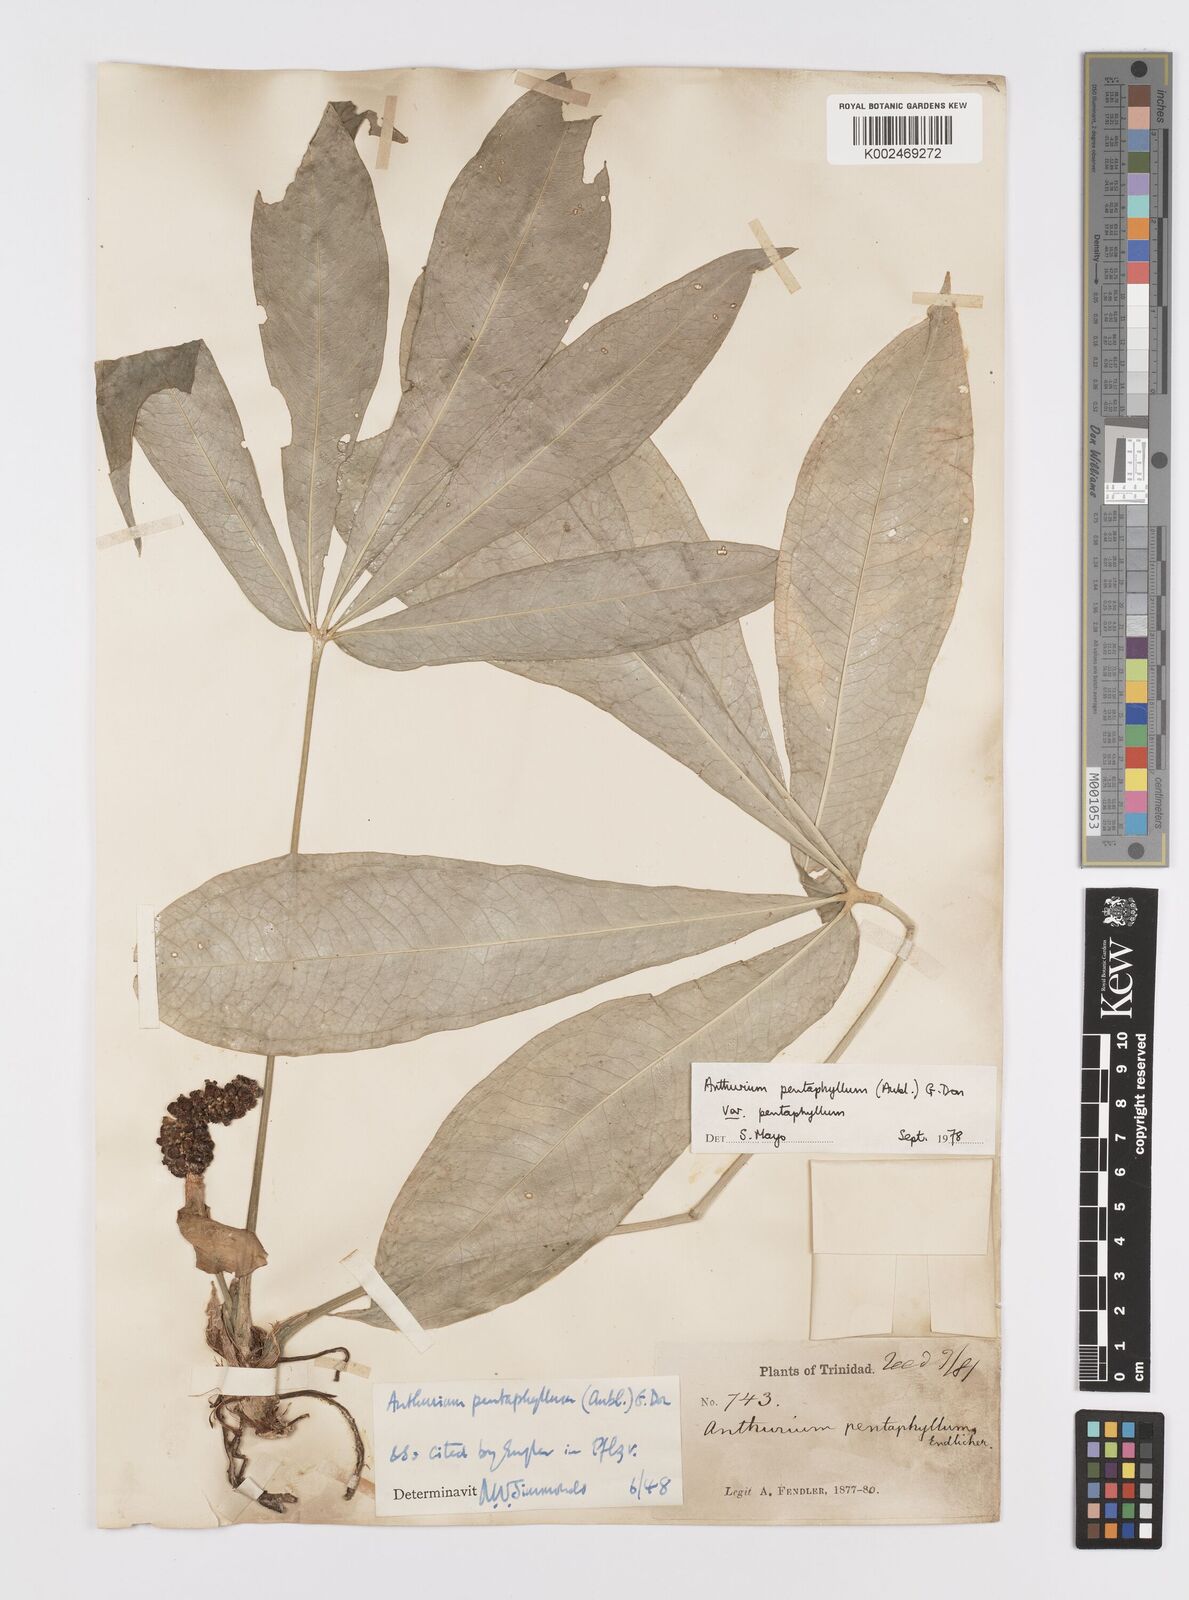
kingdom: Plantae
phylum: Tracheophyta
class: Liliopsida
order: Alismatales
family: Araceae
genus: Anthurium
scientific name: Anthurium pentaphyllum
